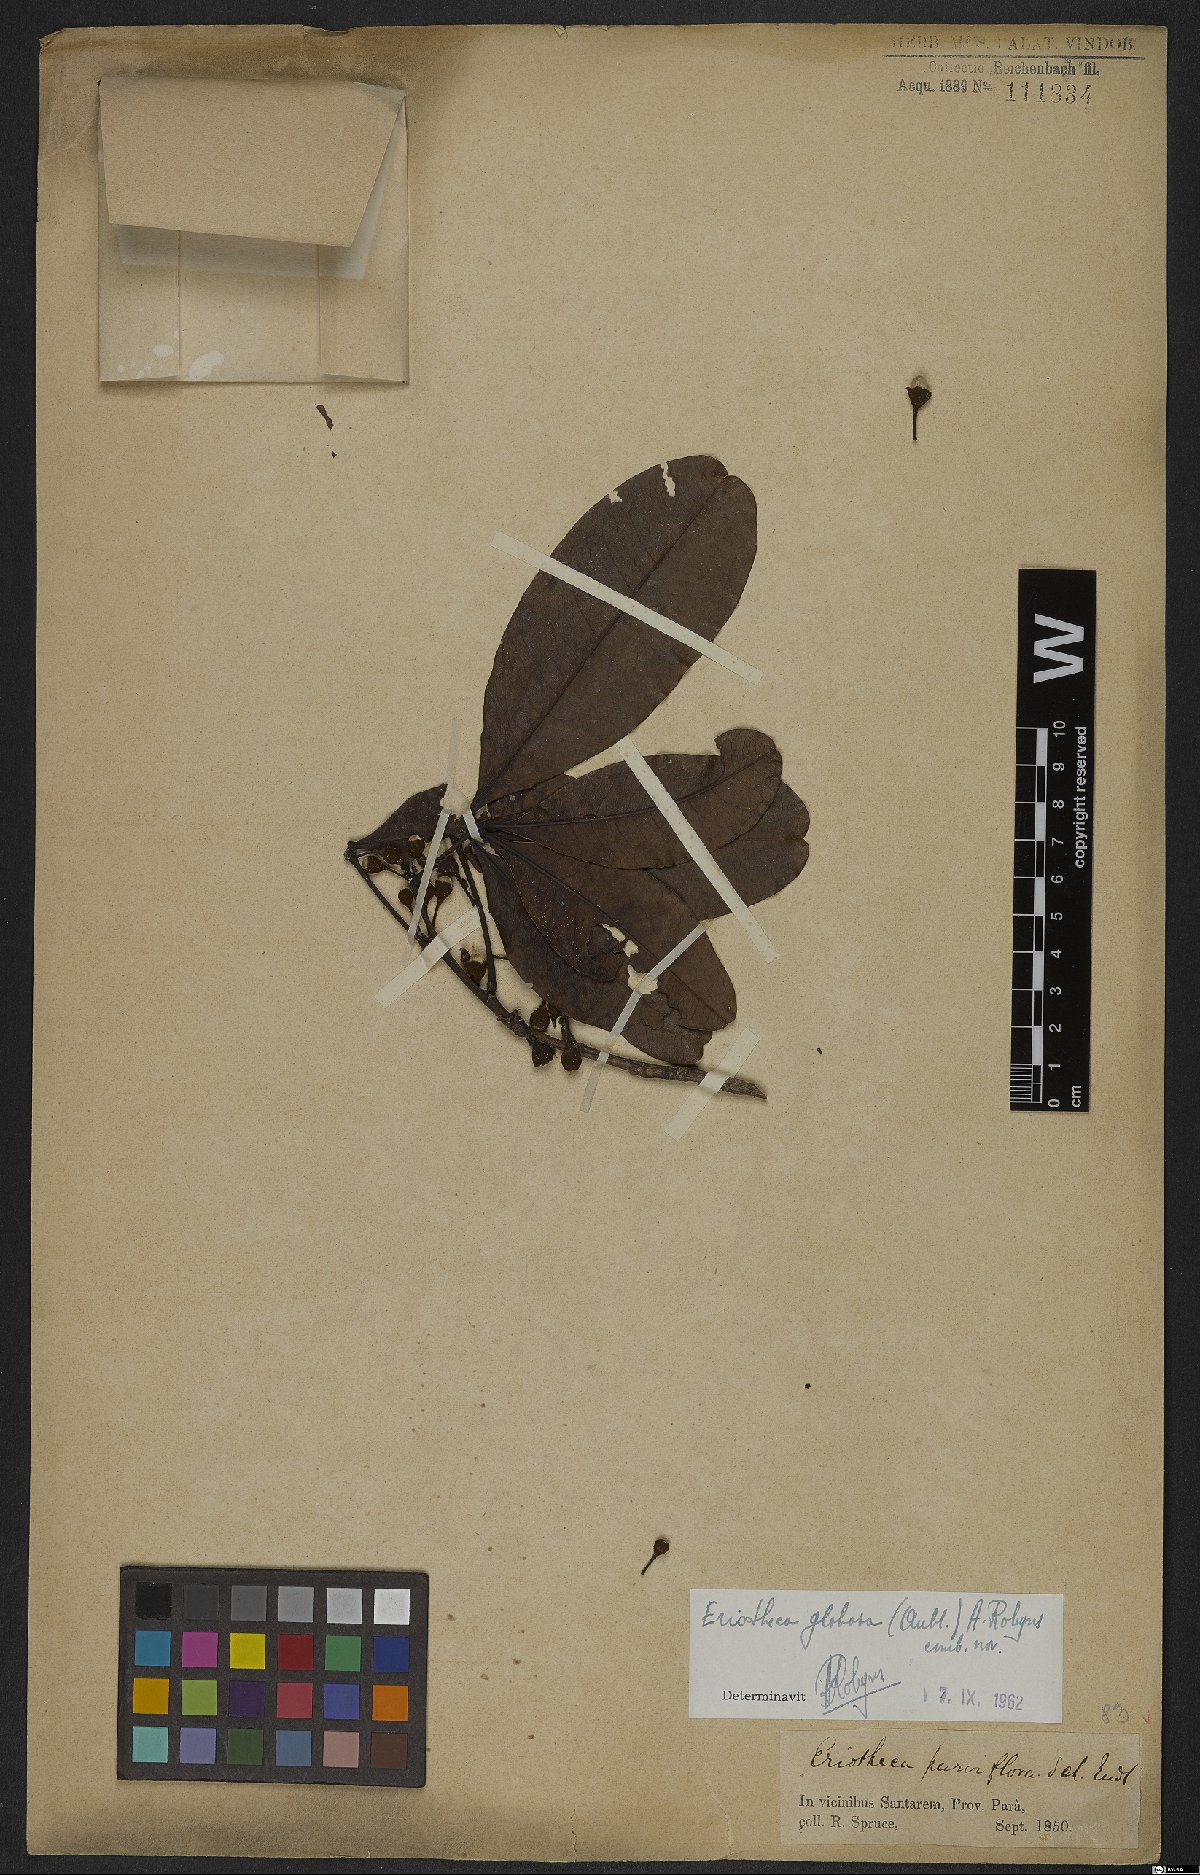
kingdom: Plantae
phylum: Tracheophyta
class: Magnoliopsida
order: Malvales
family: Malvaceae
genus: Eriotheca
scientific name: Eriotheca globosa
